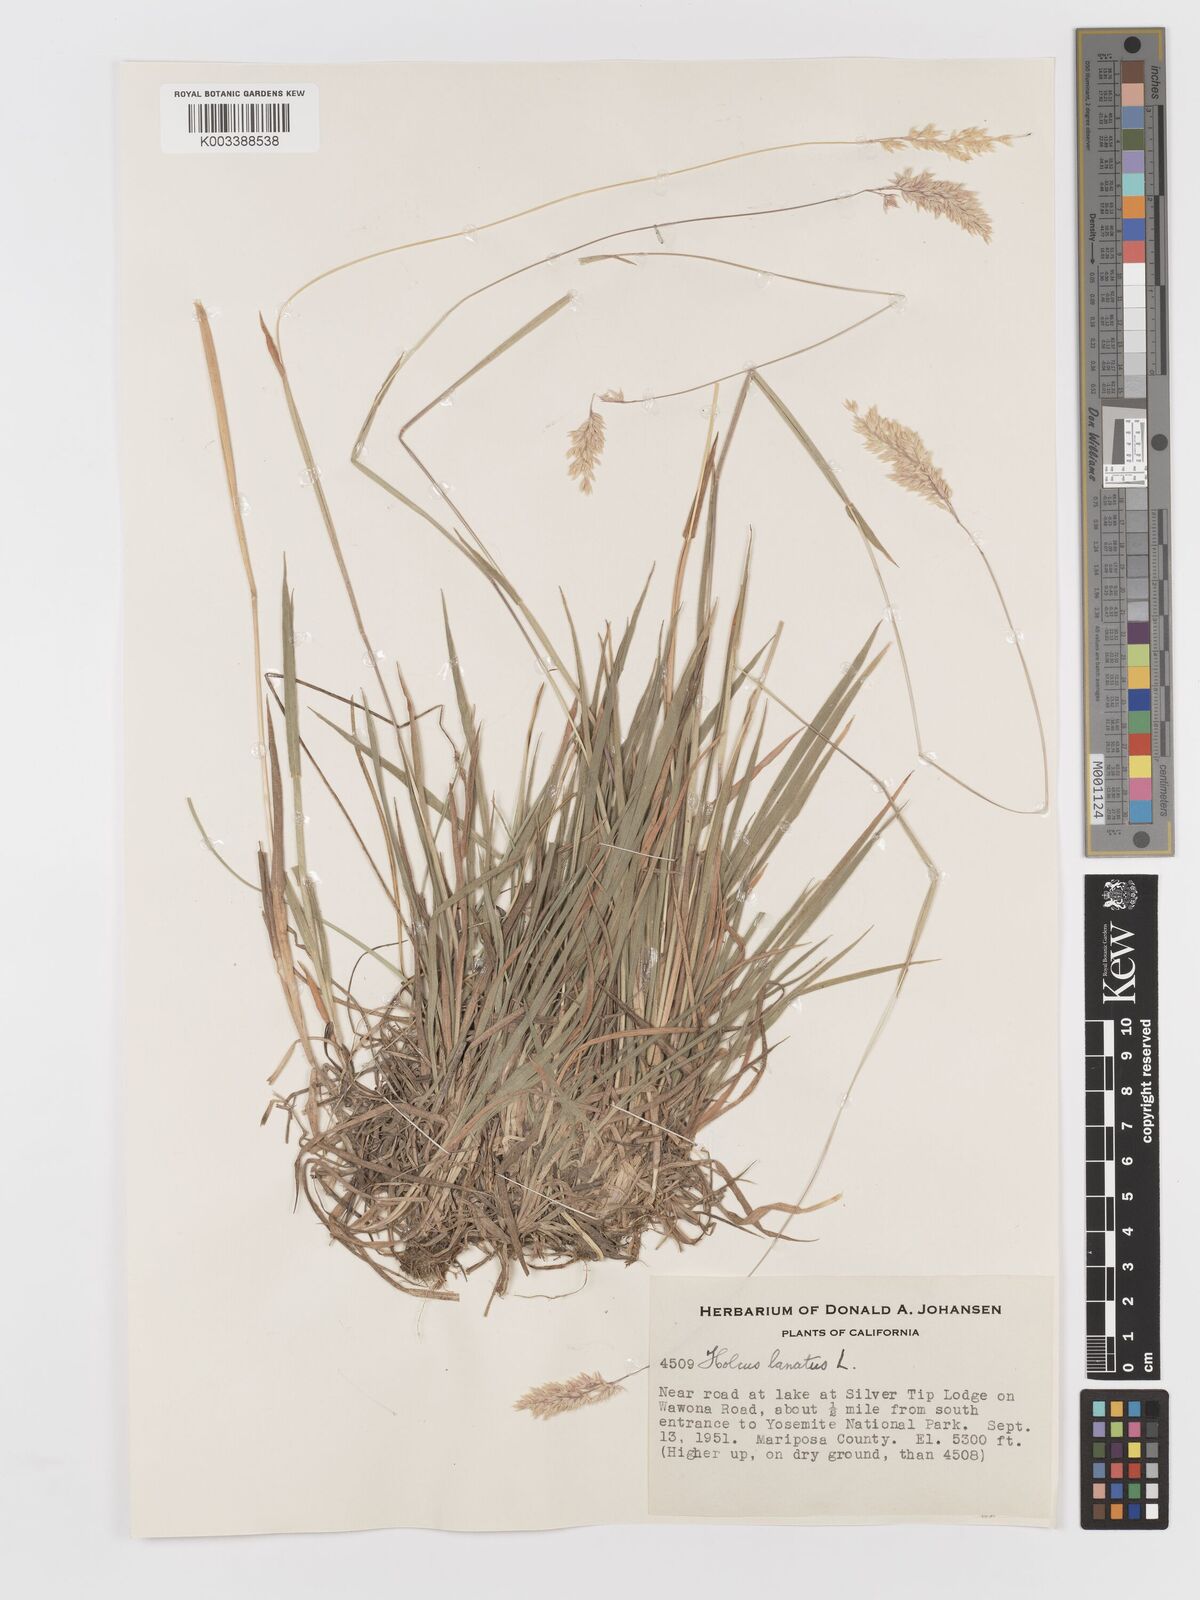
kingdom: Plantae
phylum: Tracheophyta
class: Liliopsida
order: Poales
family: Poaceae
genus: Holcus
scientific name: Holcus lanatus
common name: Yorkshire-fog
